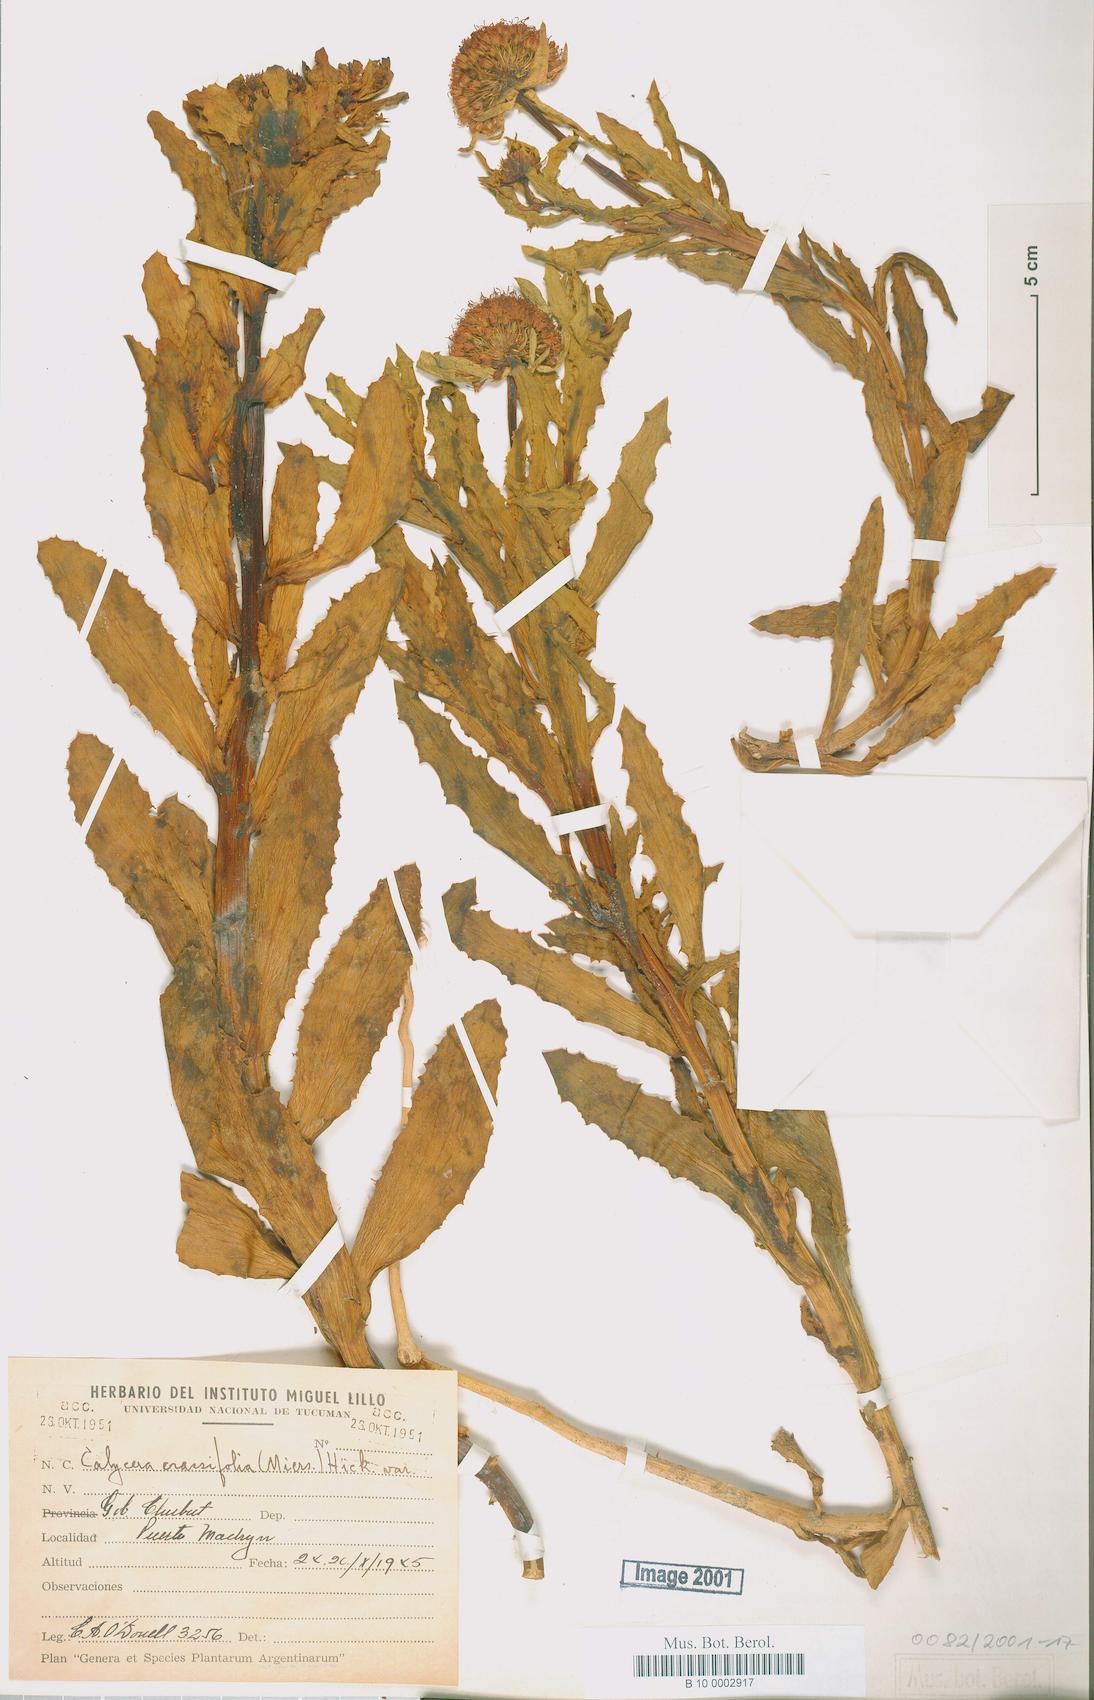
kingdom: Plantae
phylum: Tracheophyta
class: Magnoliopsida
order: Asterales
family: Calyceraceae
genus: Calycera
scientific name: Calycera crassifolia
